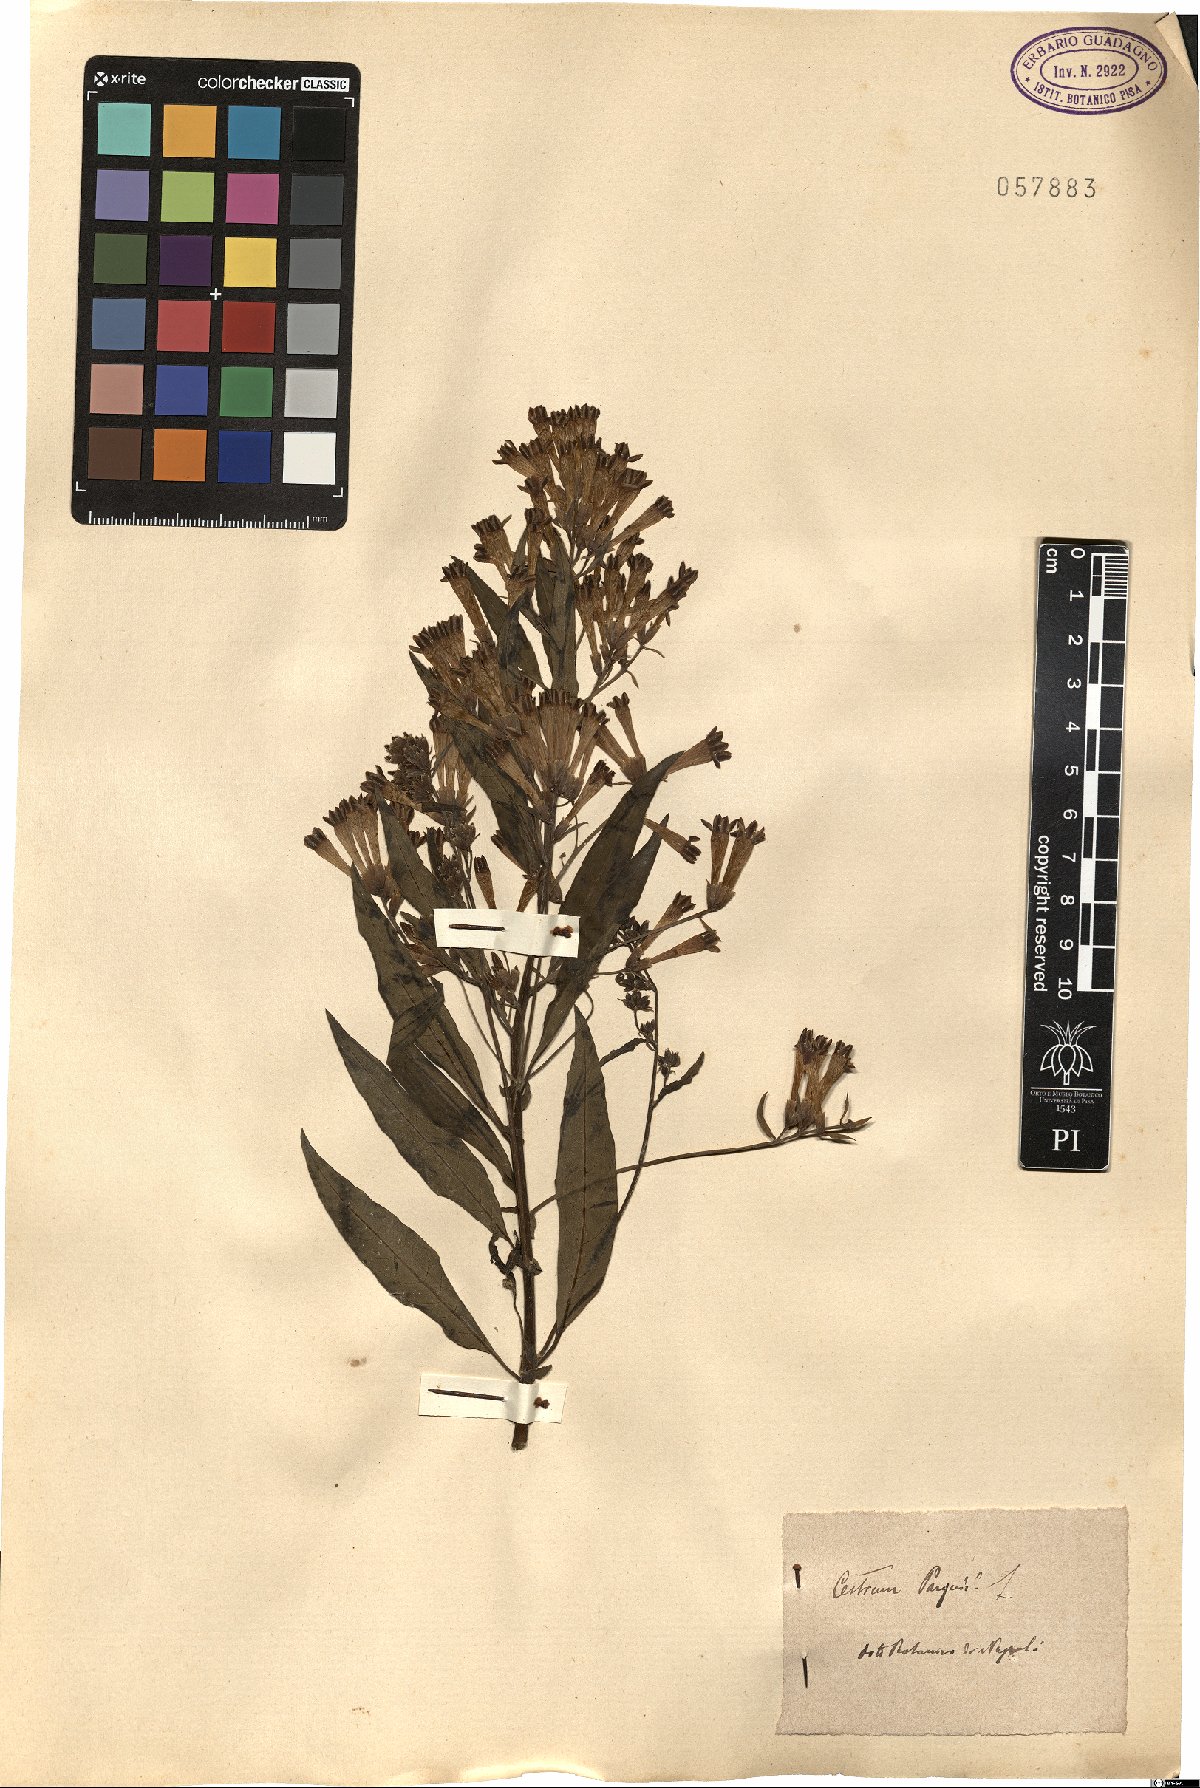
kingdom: Plantae
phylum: Tracheophyta
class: Magnoliopsida
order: Solanales
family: Solanaceae
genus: Cestrum
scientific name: Cestrum thyrsoideum
